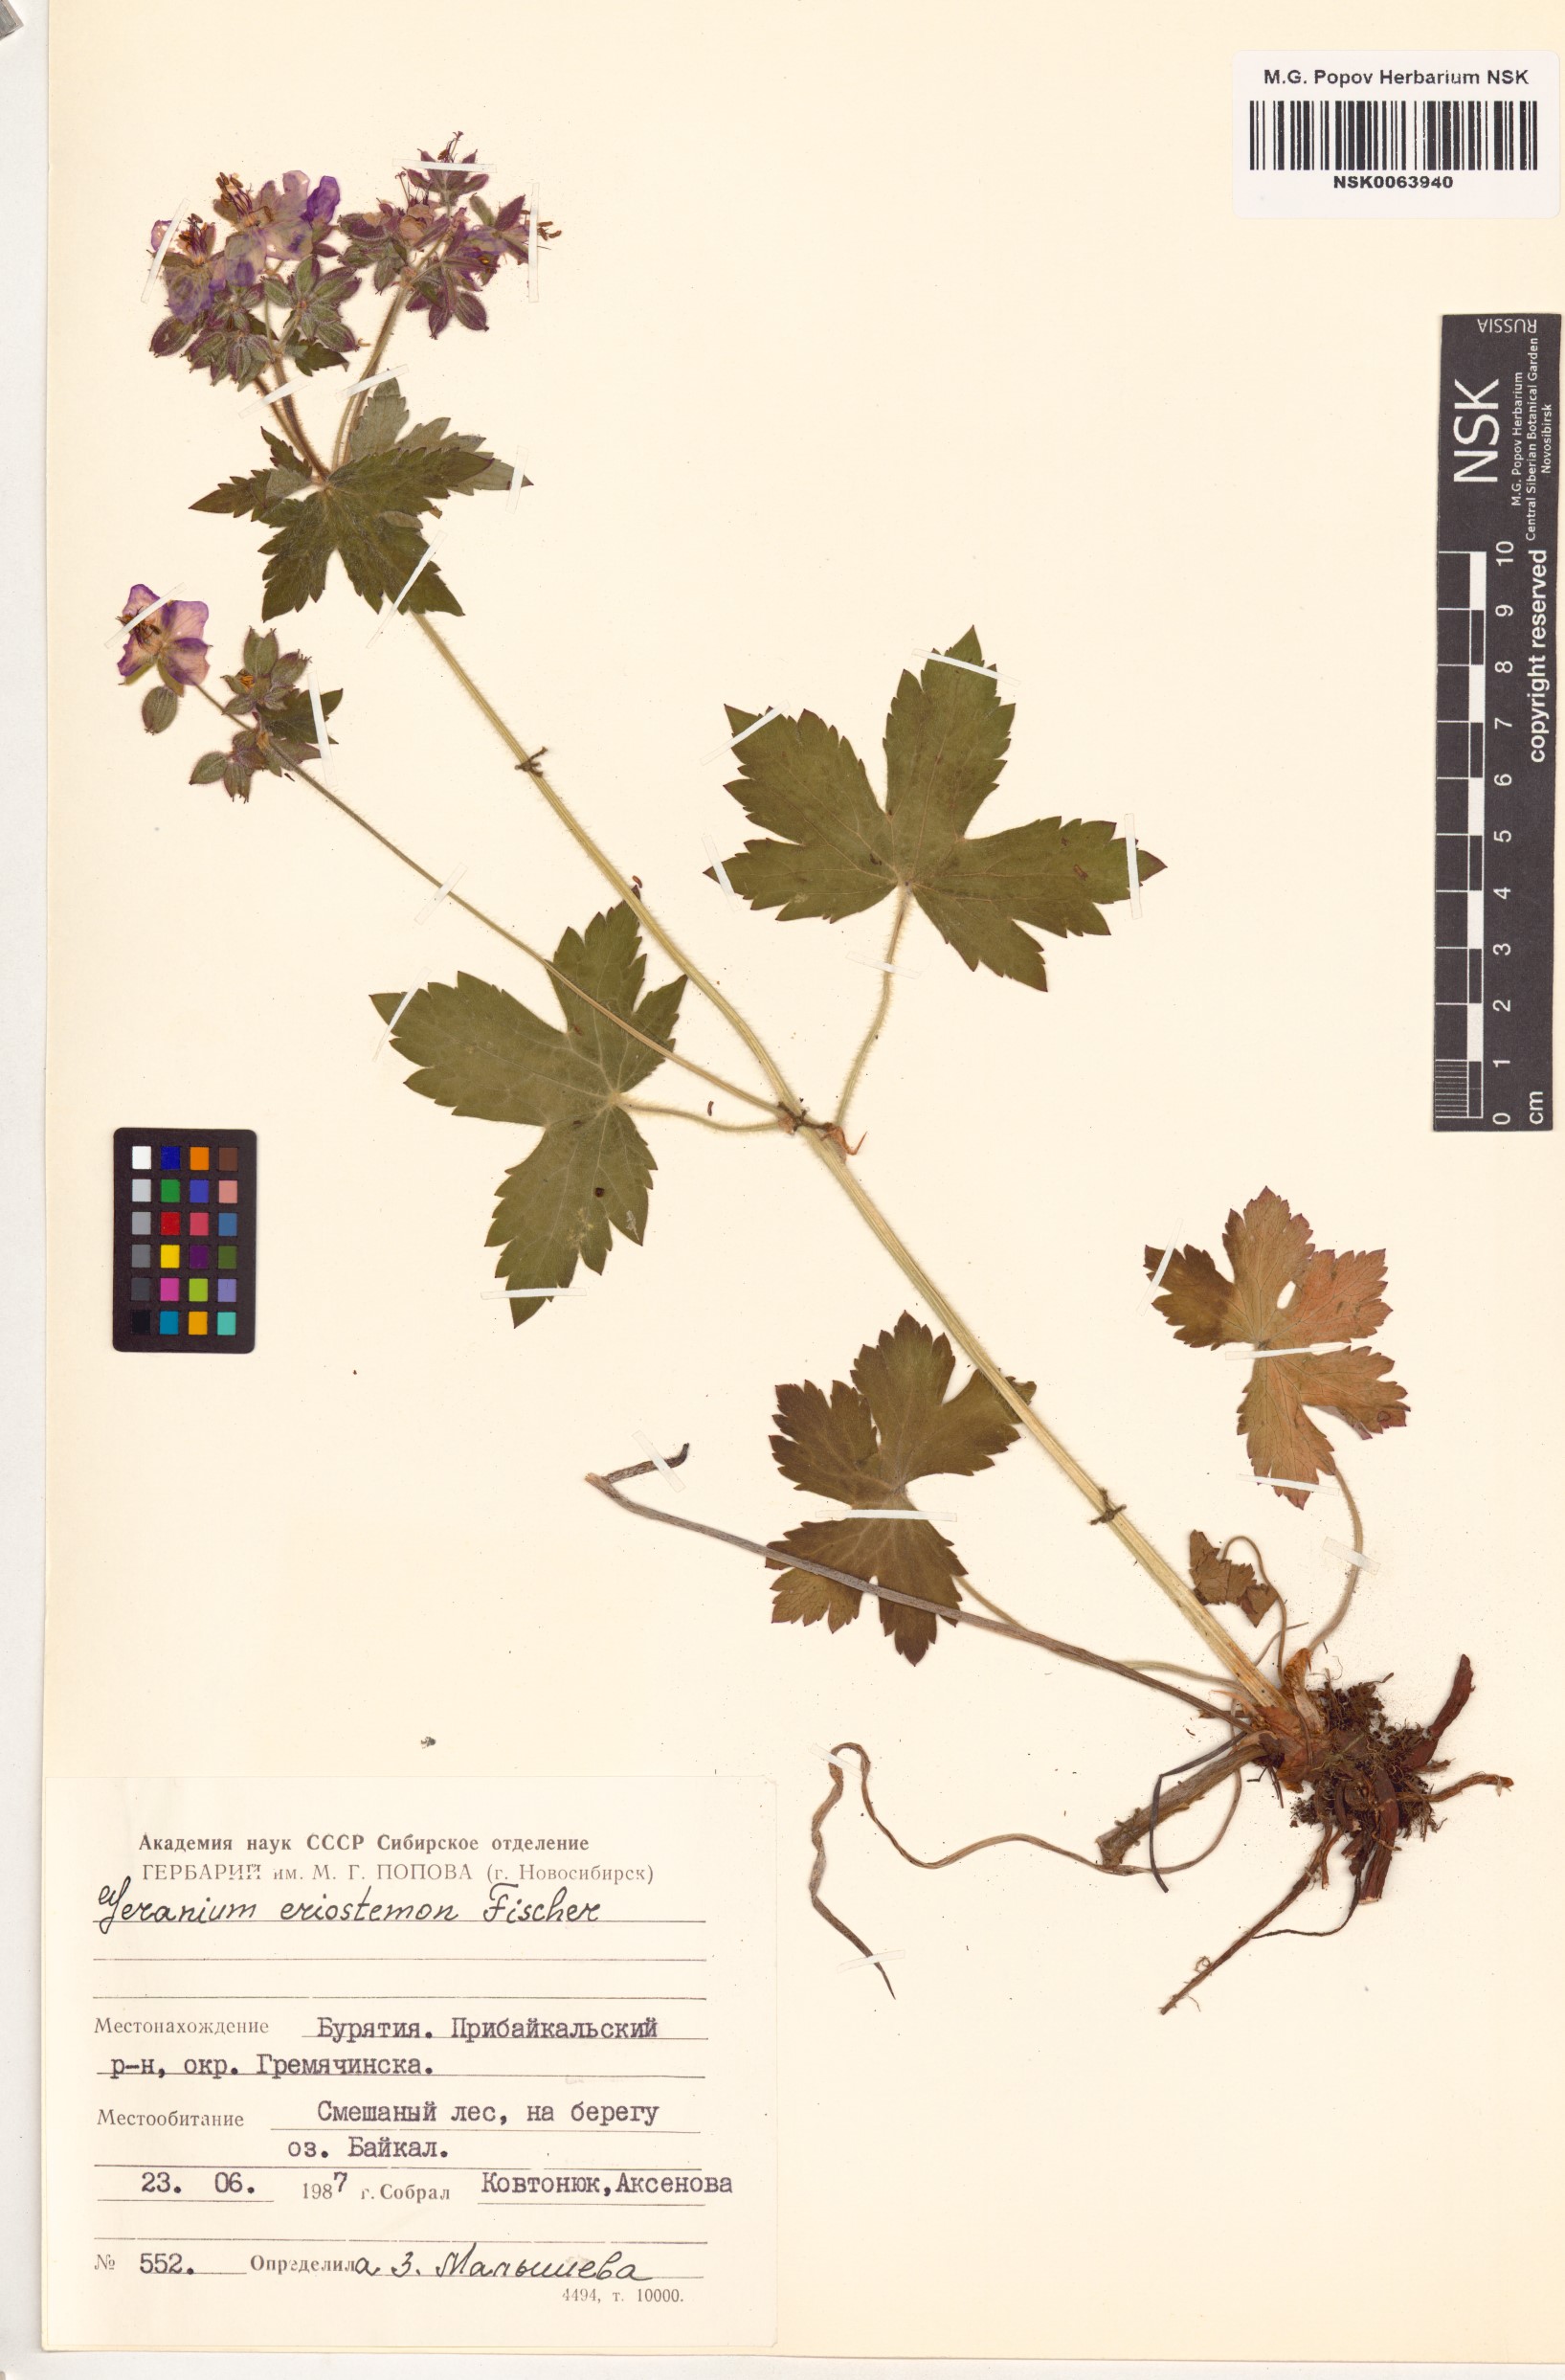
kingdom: Plantae
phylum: Tracheophyta
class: Magnoliopsida
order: Geraniales
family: Geraniaceae
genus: Geranium
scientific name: Geranium platyanthum
